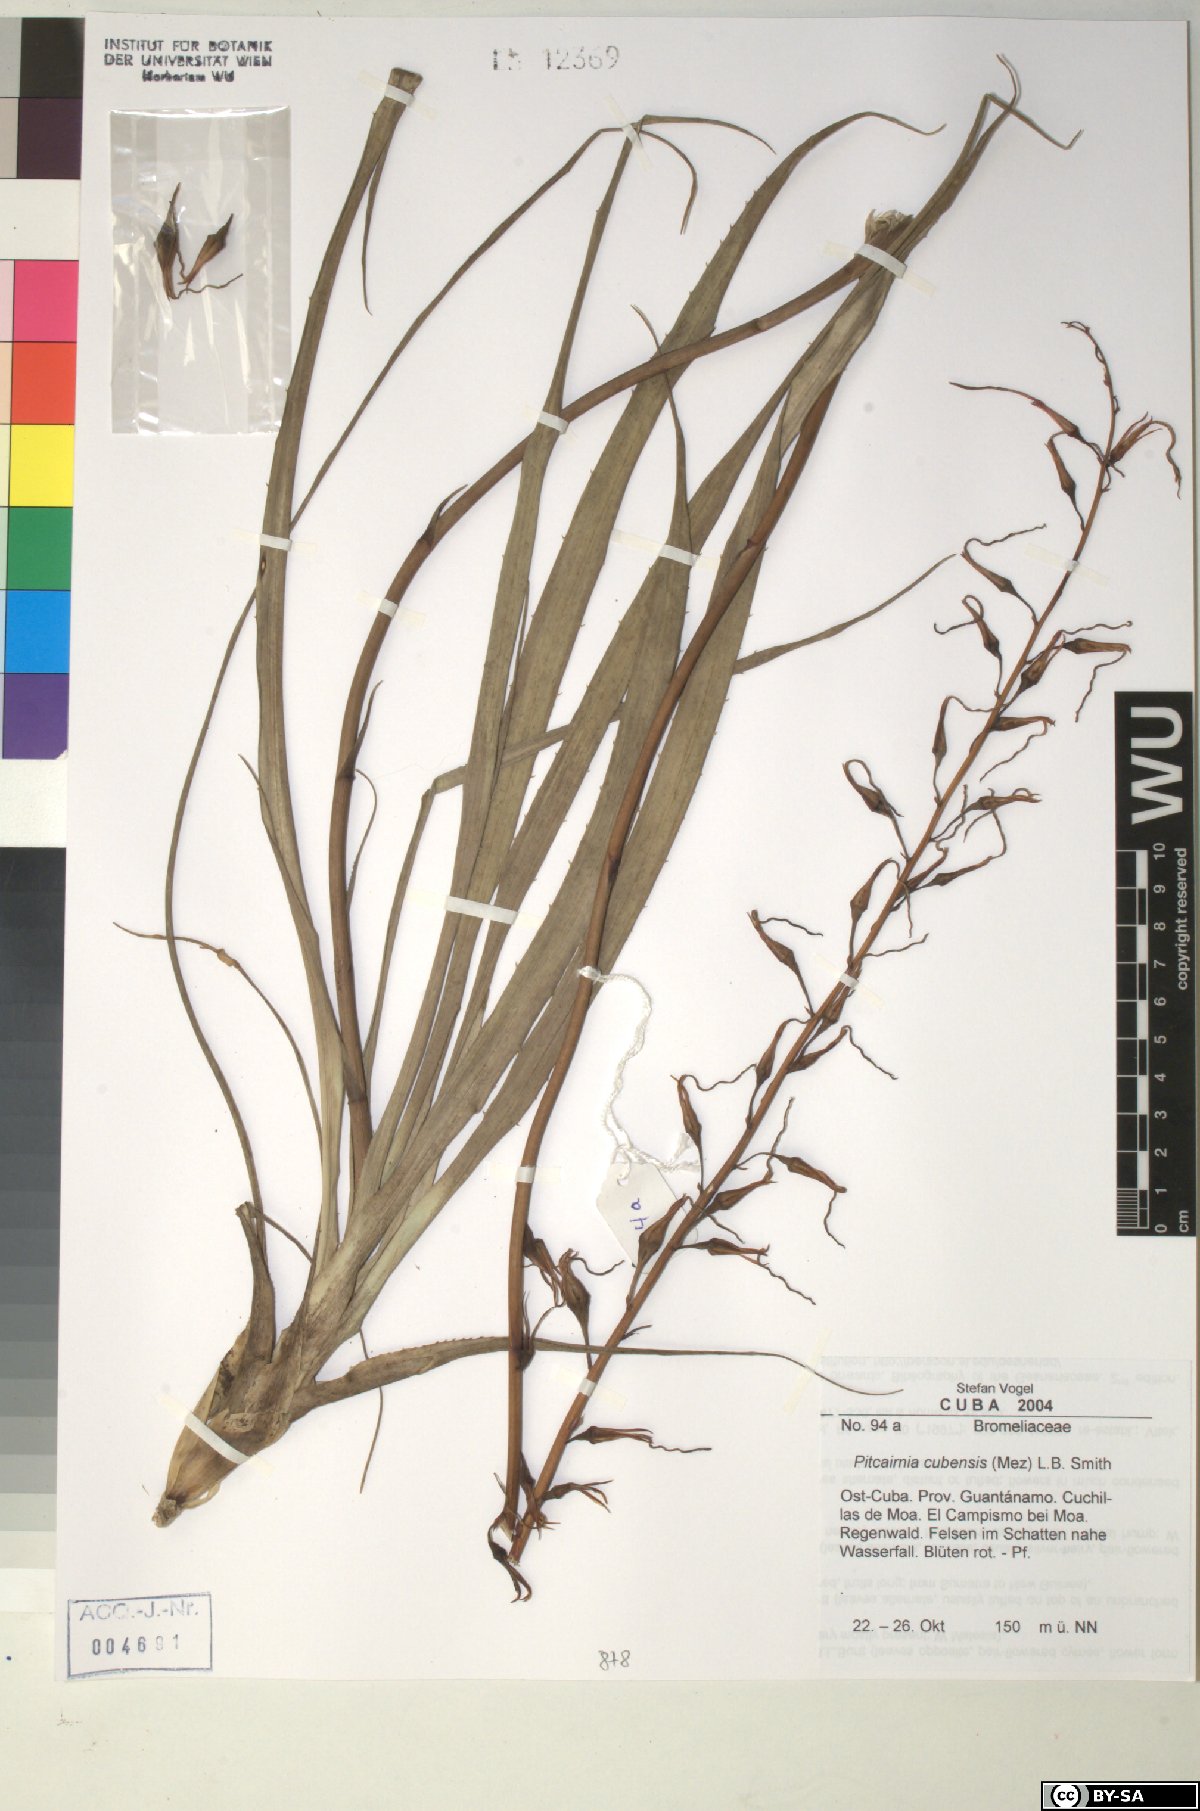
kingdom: Plantae
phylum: Tracheophyta
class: Liliopsida
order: Poales
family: Bromeliaceae
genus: Pitcairnia
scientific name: Pitcairnia cubensis
